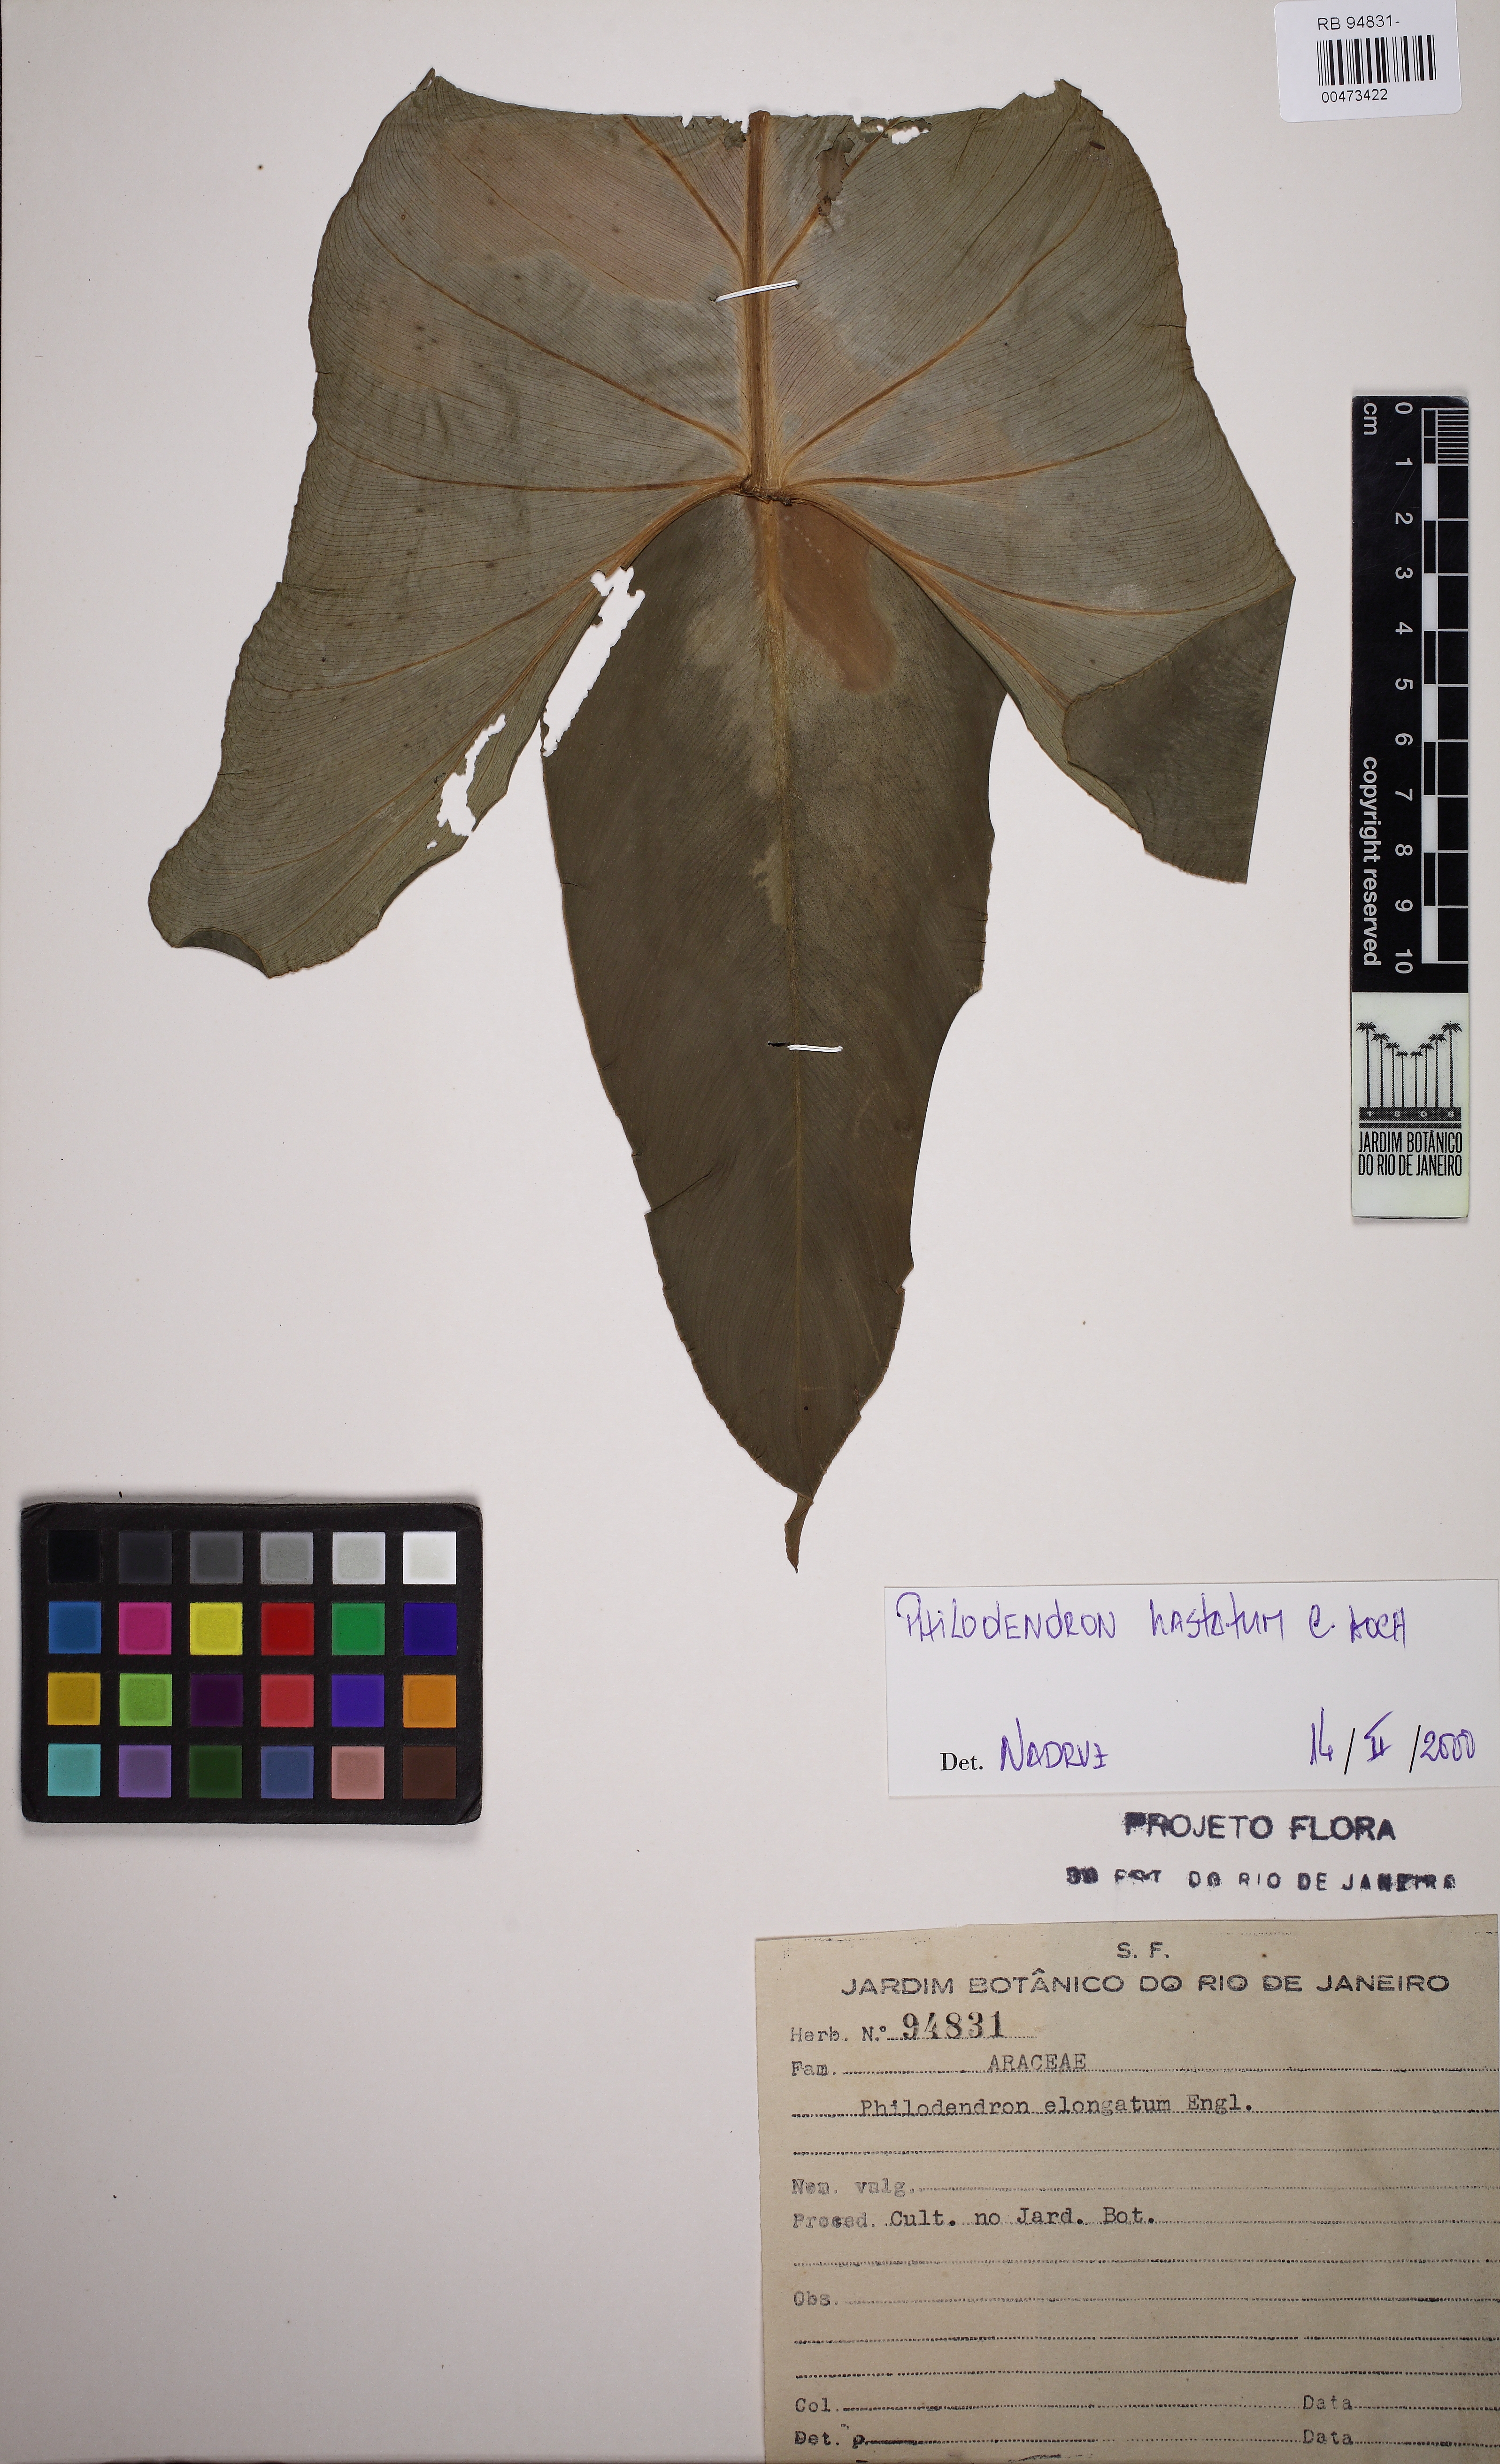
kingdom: Plantae
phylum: Tracheophyta
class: Liliopsida
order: Alismatales
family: Araceae
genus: Philodendron
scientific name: Philodendron hastatum
